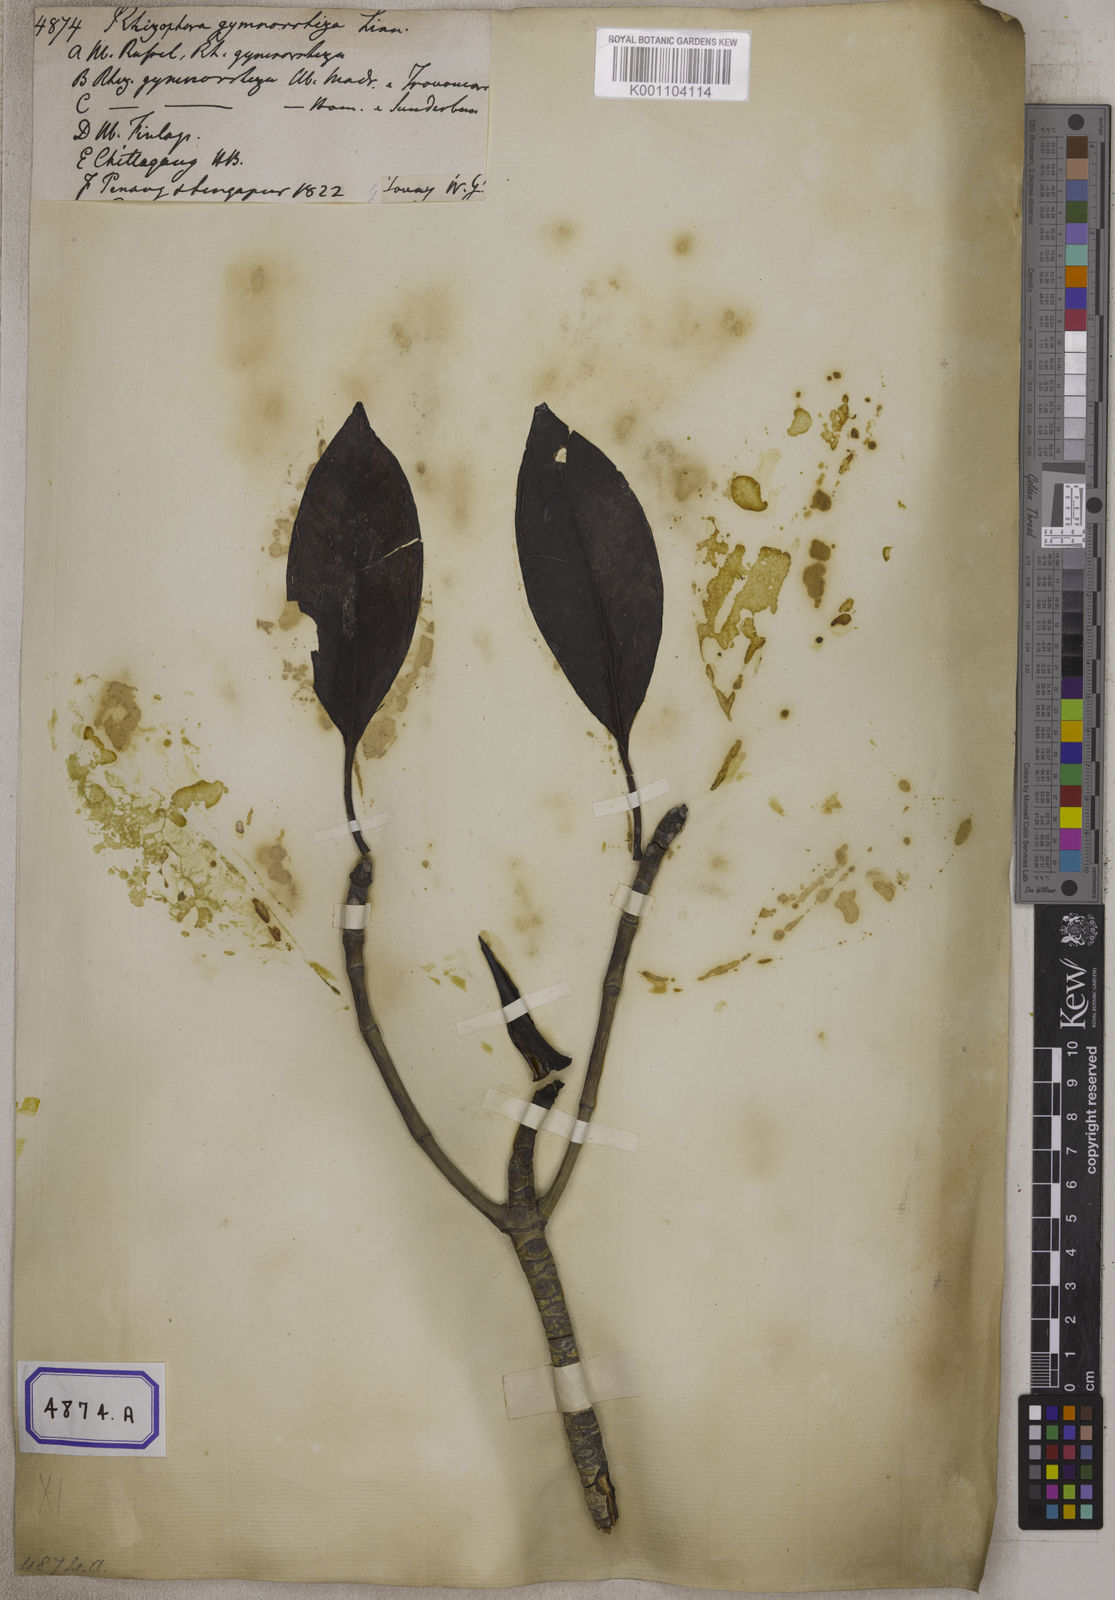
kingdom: Plantae
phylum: Tracheophyta
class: Magnoliopsida
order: Malpighiales
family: Rhizophoraceae
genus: Bruguiera
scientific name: Bruguiera gymnorhiza
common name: Oriental mangrove
